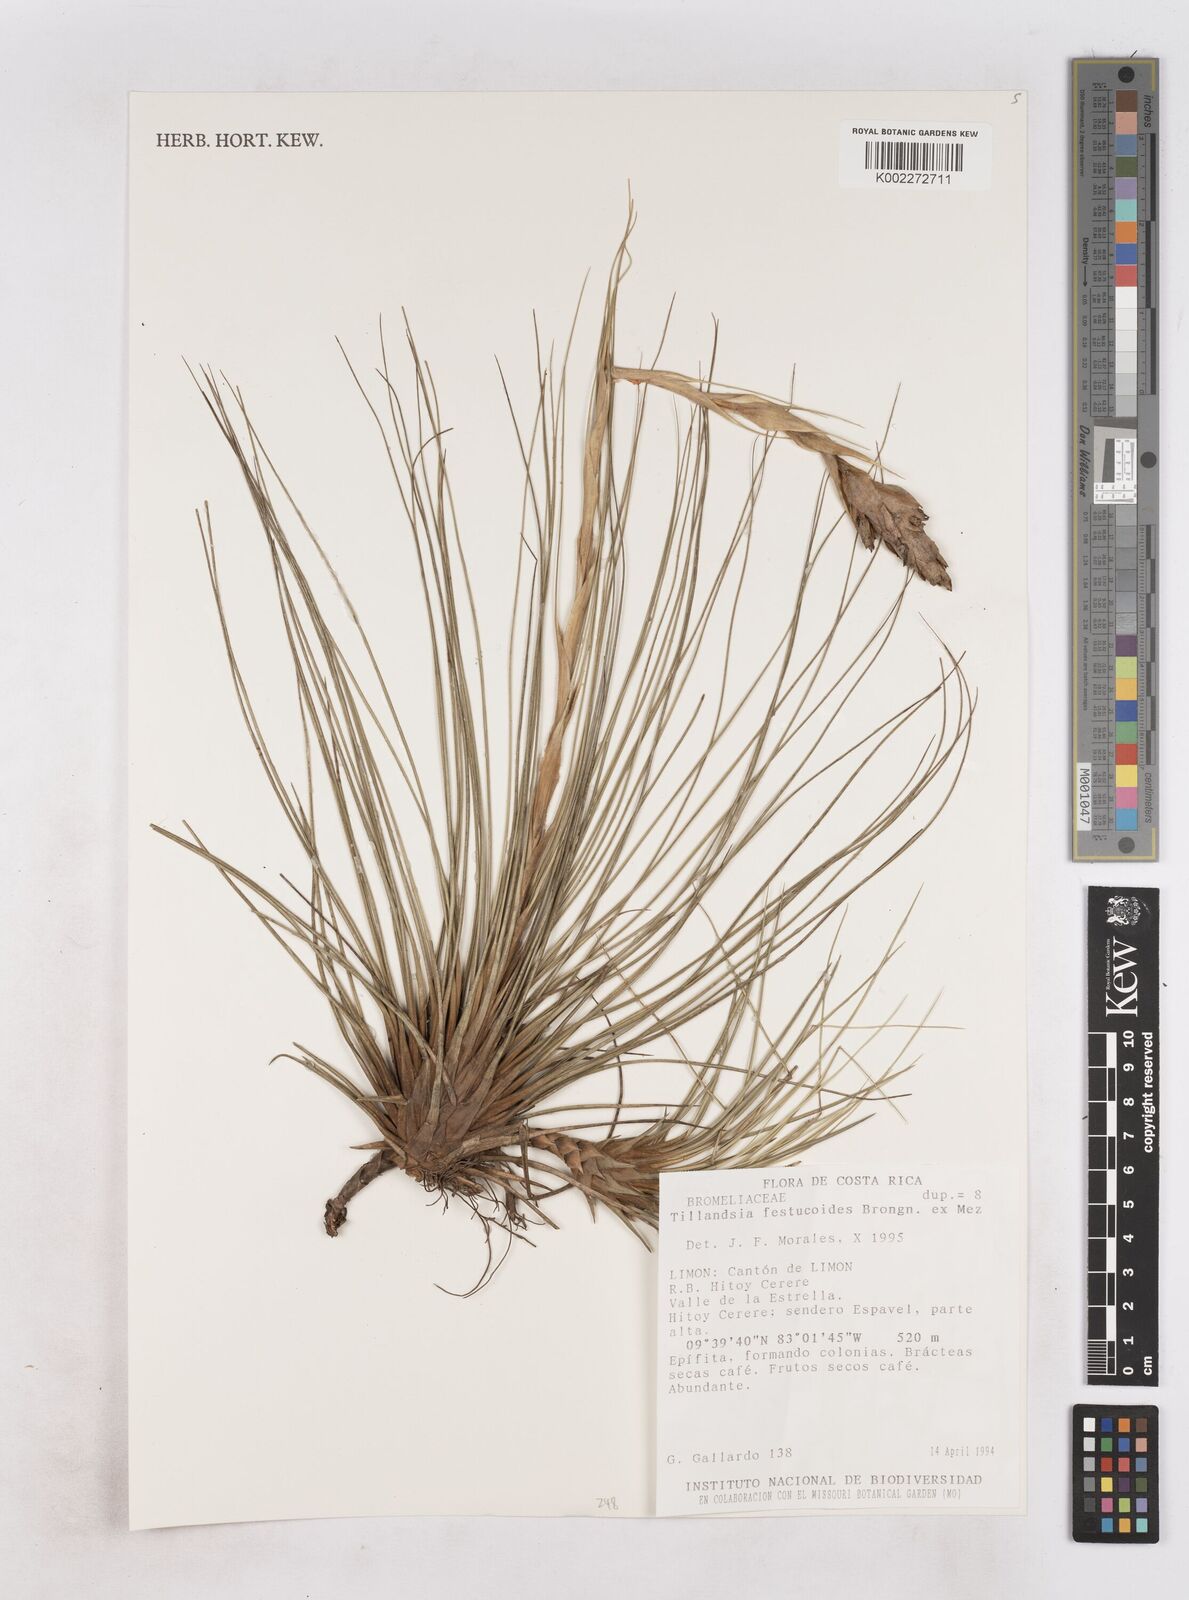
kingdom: Plantae
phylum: Tracheophyta
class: Liliopsida
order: Poales
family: Bromeliaceae
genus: Tillandsia
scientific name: Tillandsia festucoides
